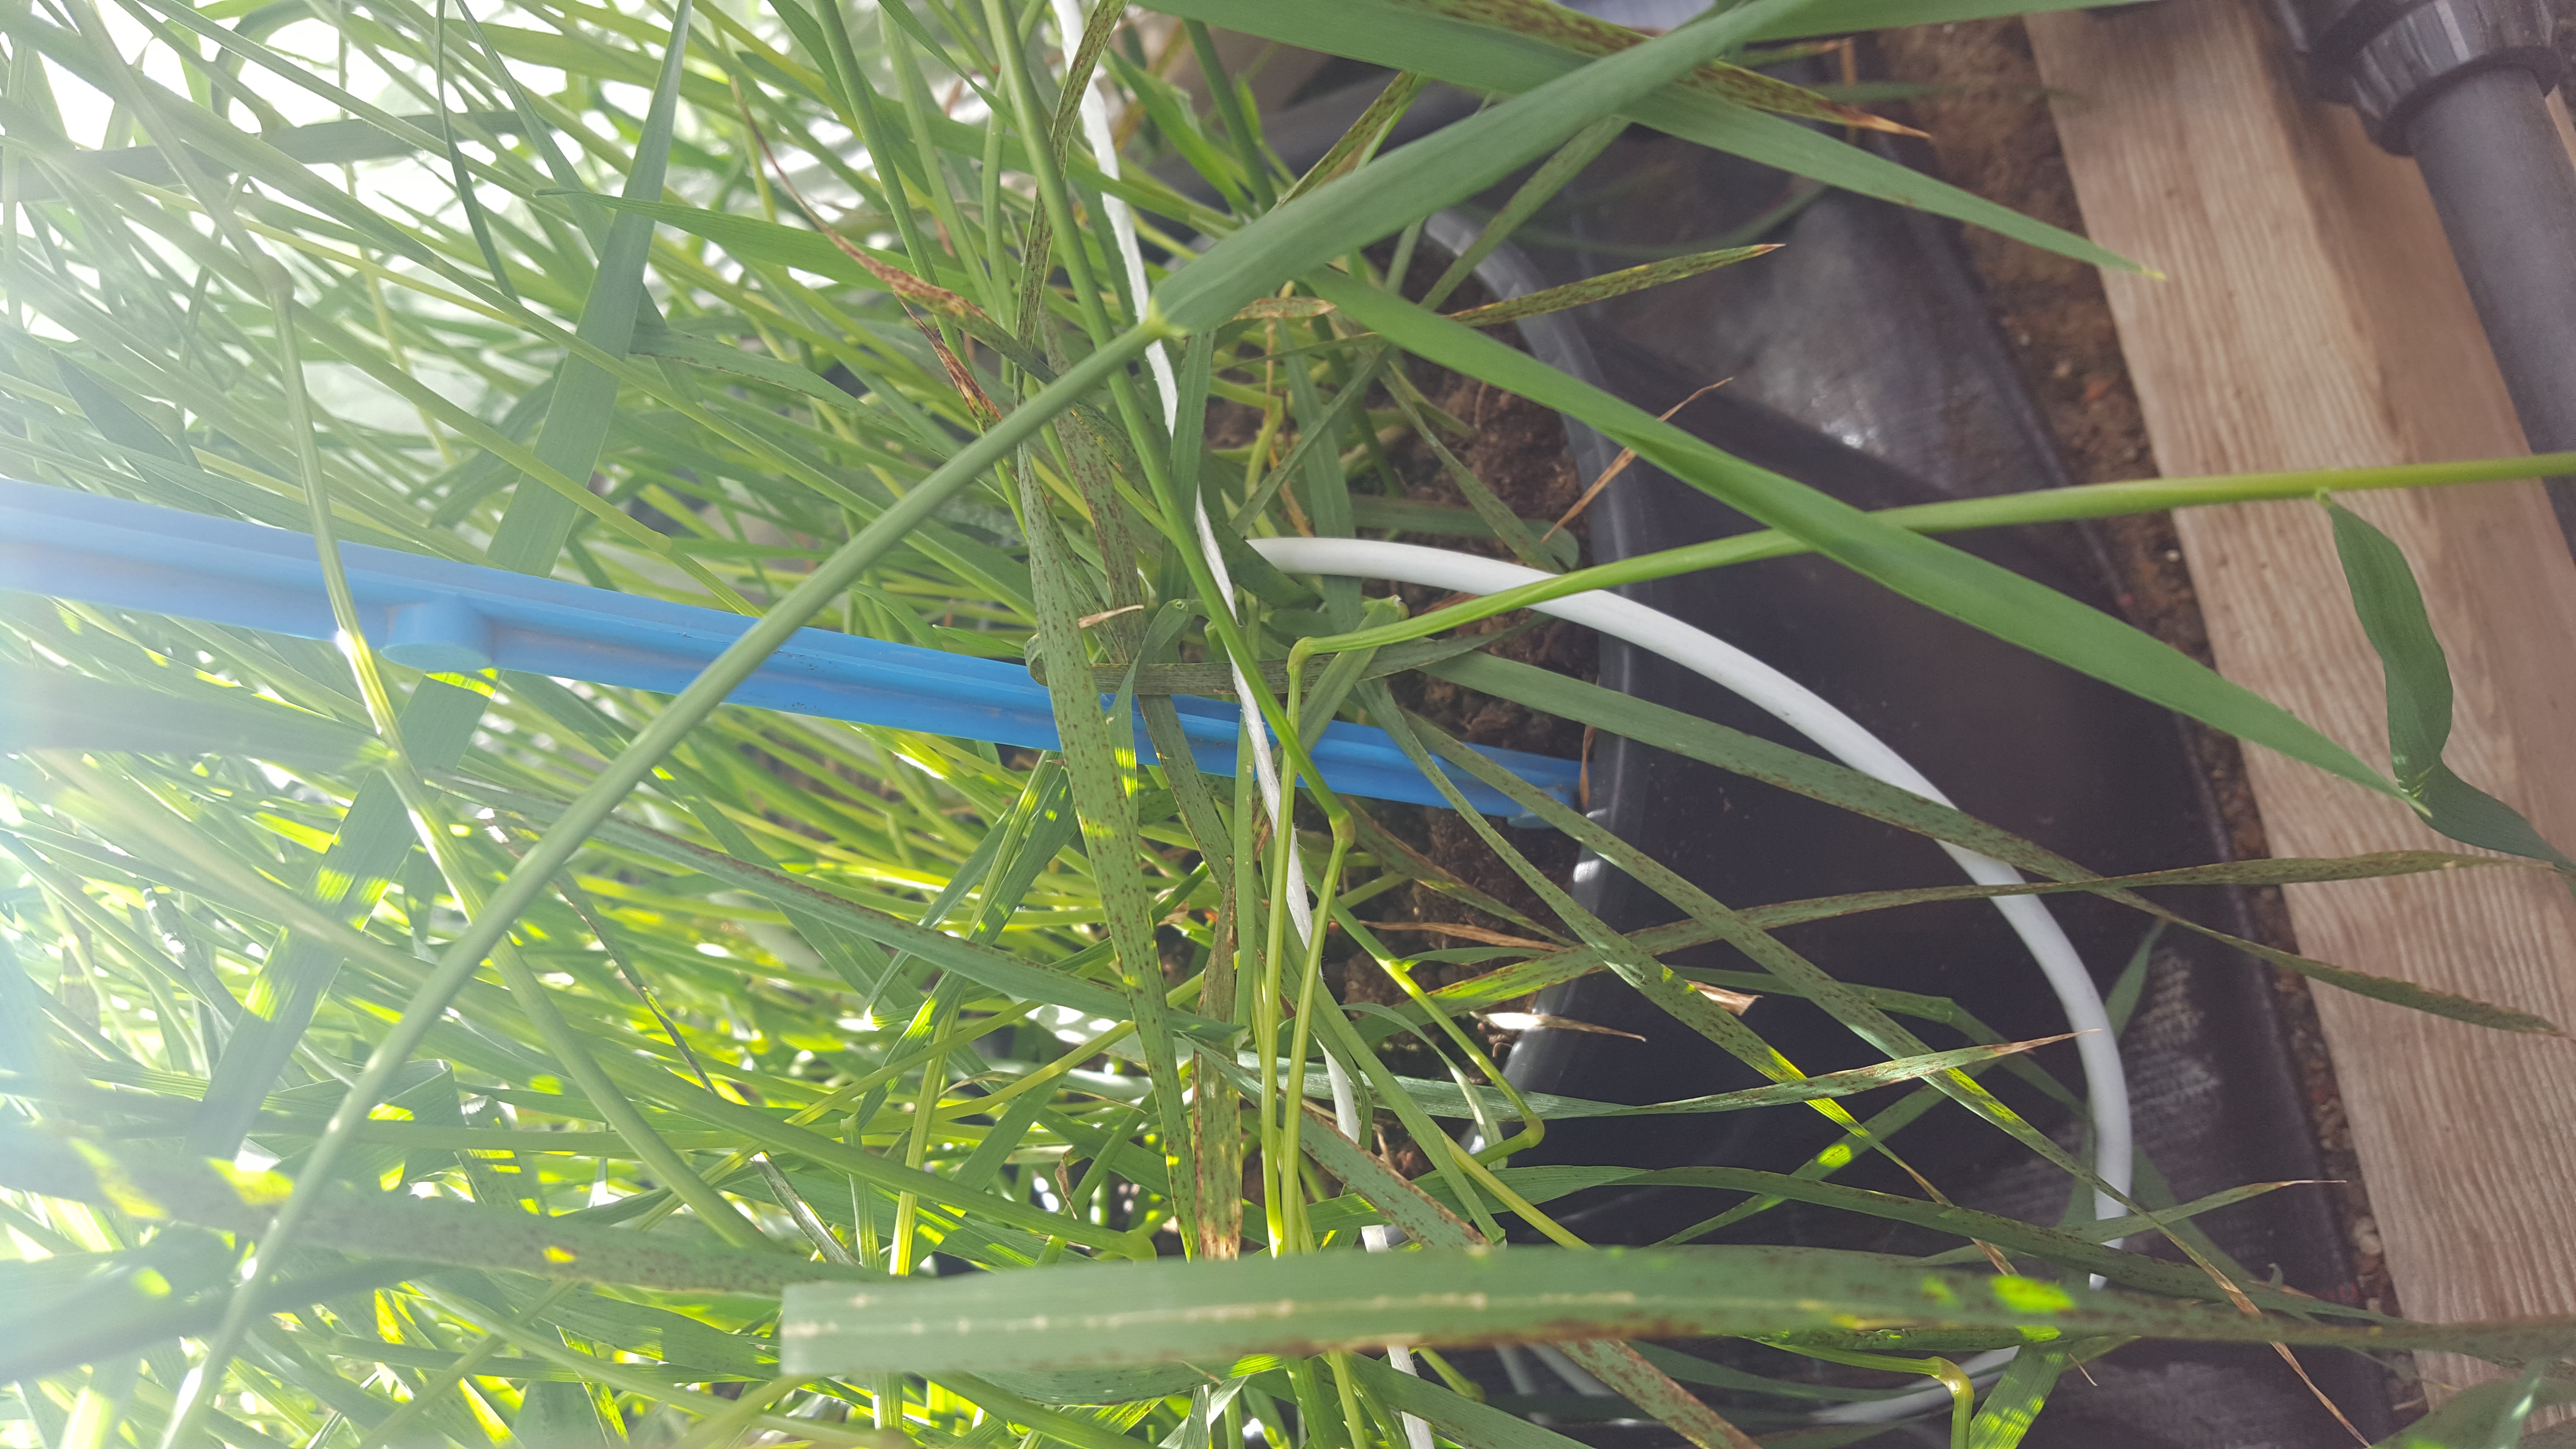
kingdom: Plantae
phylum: Tracheophyta
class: Liliopsida
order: Poales
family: Poaceae
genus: Hordeum
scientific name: Hordeum brachyantherum
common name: Meadow barley
